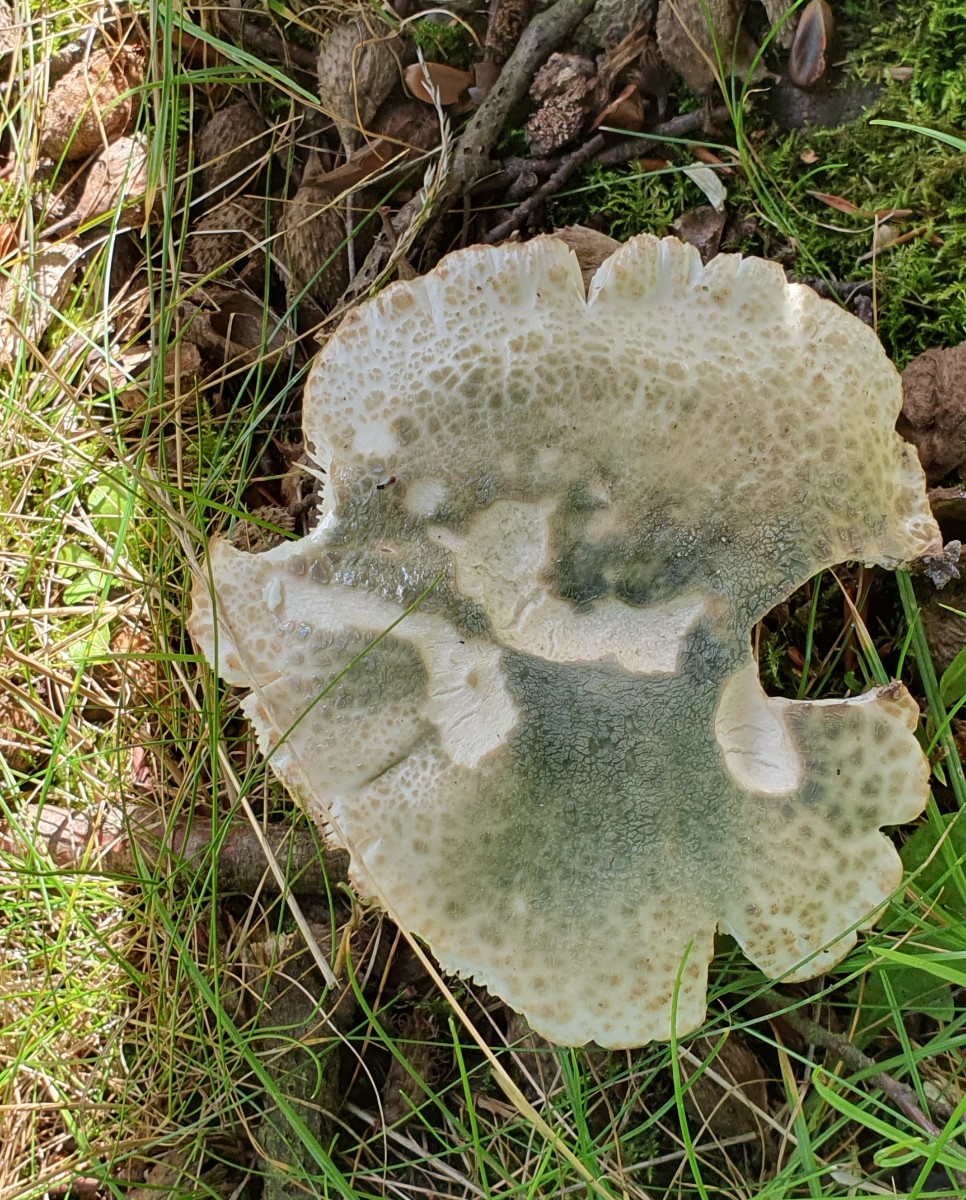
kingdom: Fungi
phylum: Basidiomycota
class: Agaricomycetes
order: Russulales
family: Russulaceae
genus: Russula
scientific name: Russula virescens
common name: spanskgrøn skørhat
